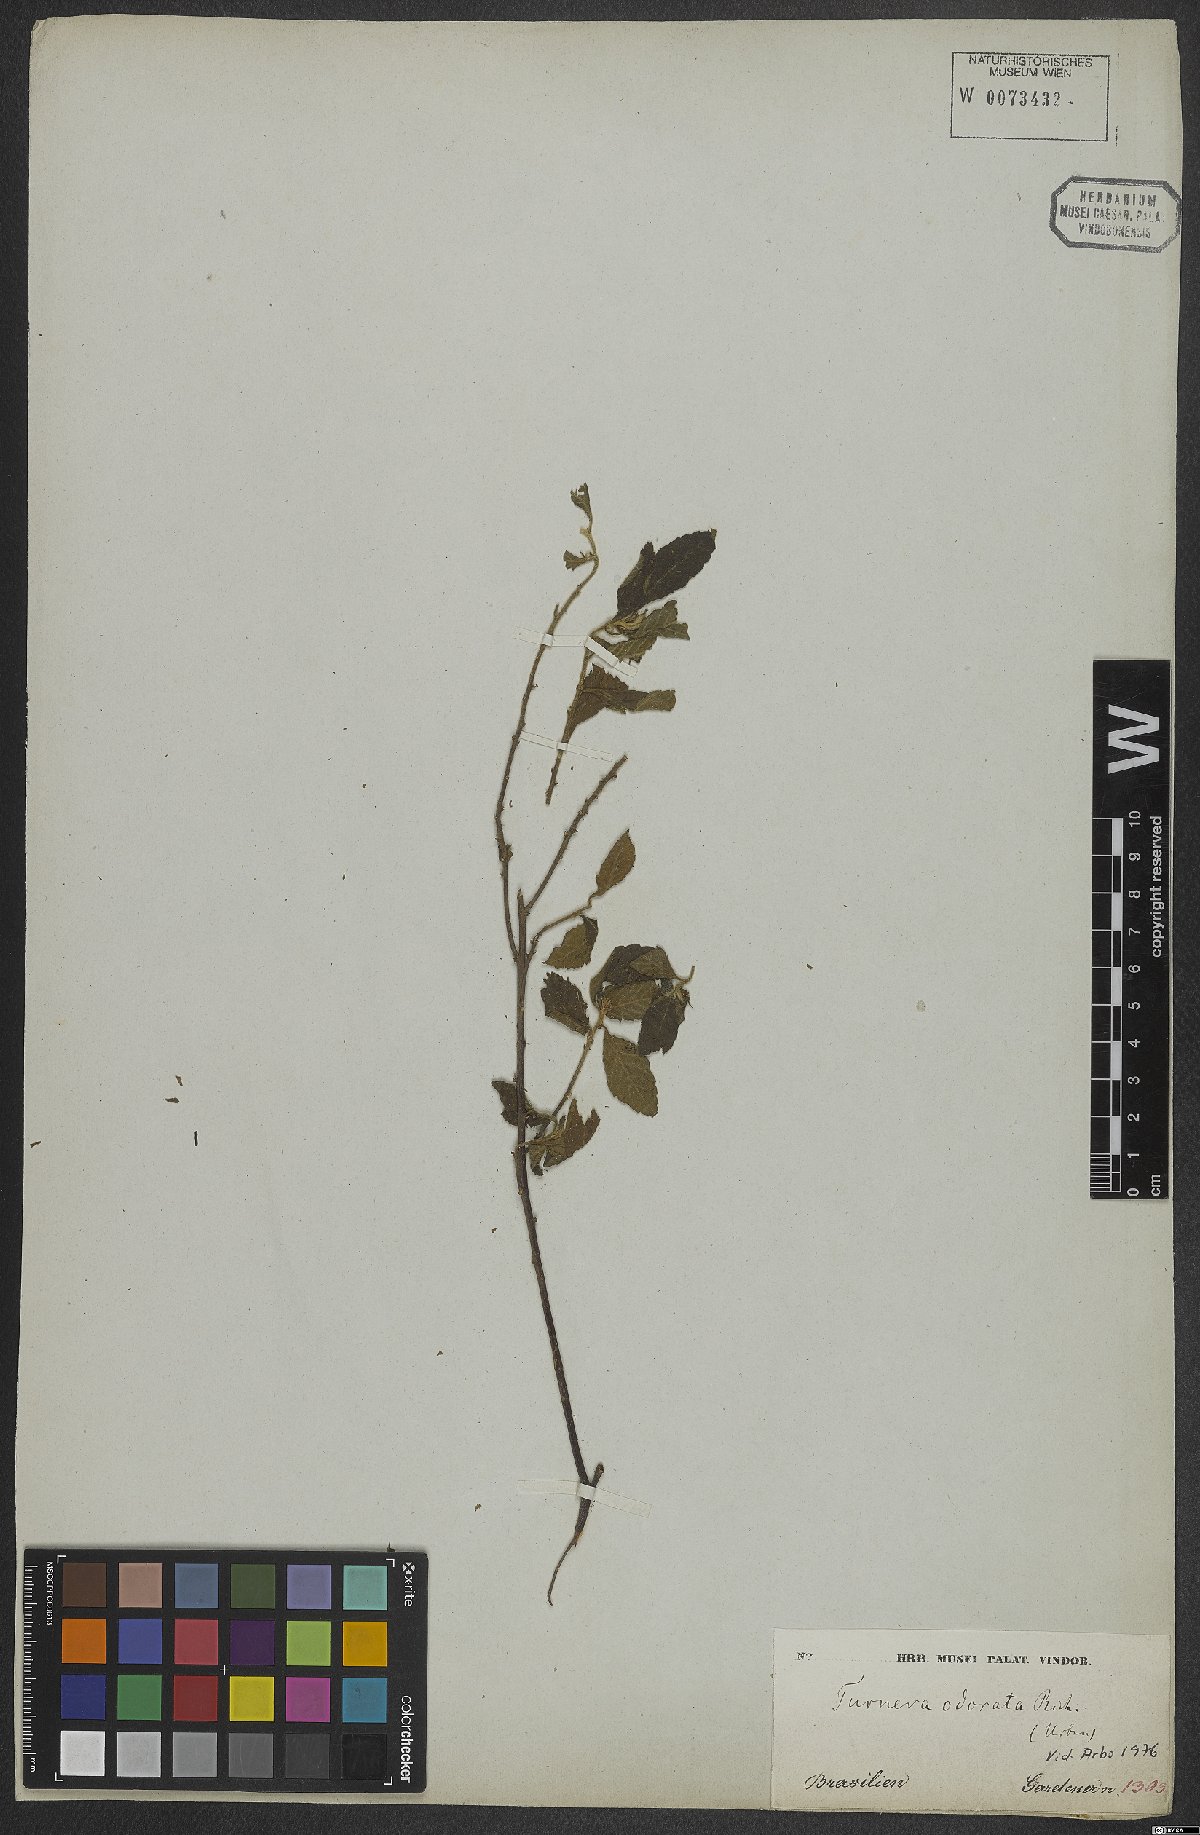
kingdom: Plantae
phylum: Tracheophyta
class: Magnoliopsida
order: Malpighiales
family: Turneraceae
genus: Turnera
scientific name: Turnera odorata
